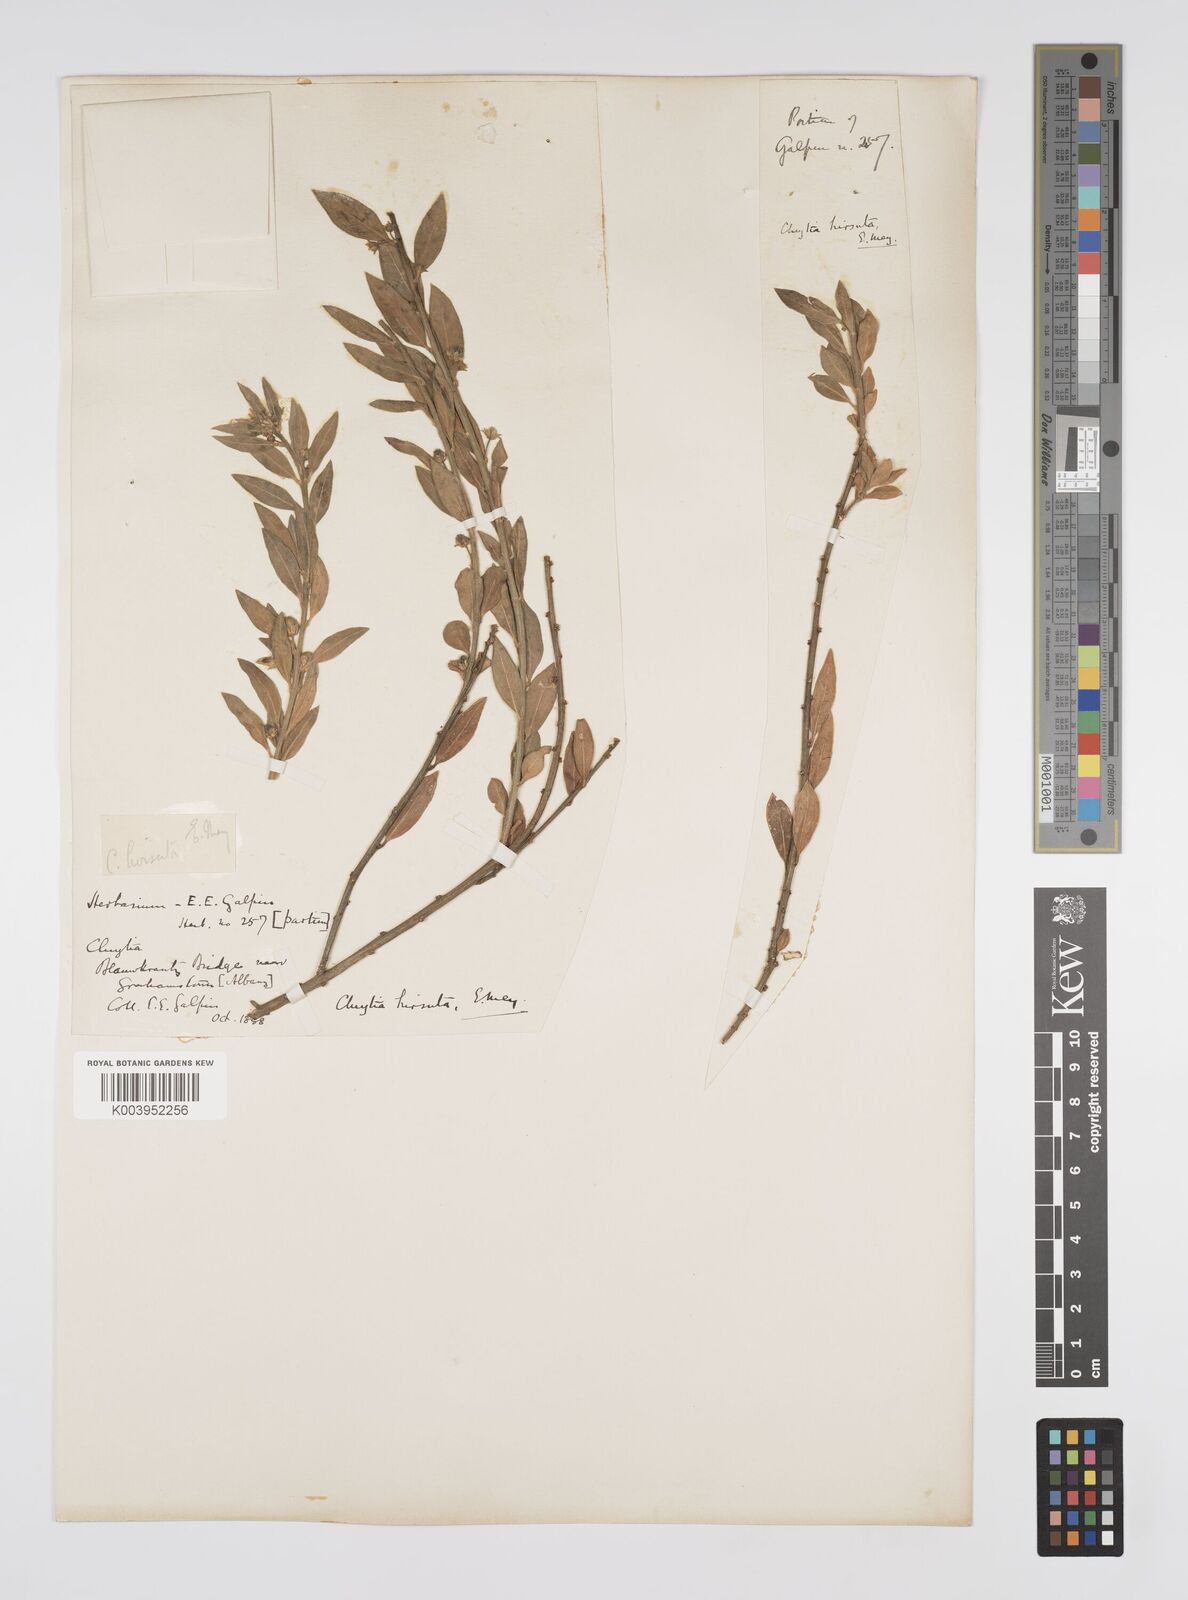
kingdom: Plantae
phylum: Tracheophyta
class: Magnoliopsida
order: Malpighiales
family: Peraceae
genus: Clutia
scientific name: Clutia hybrida
